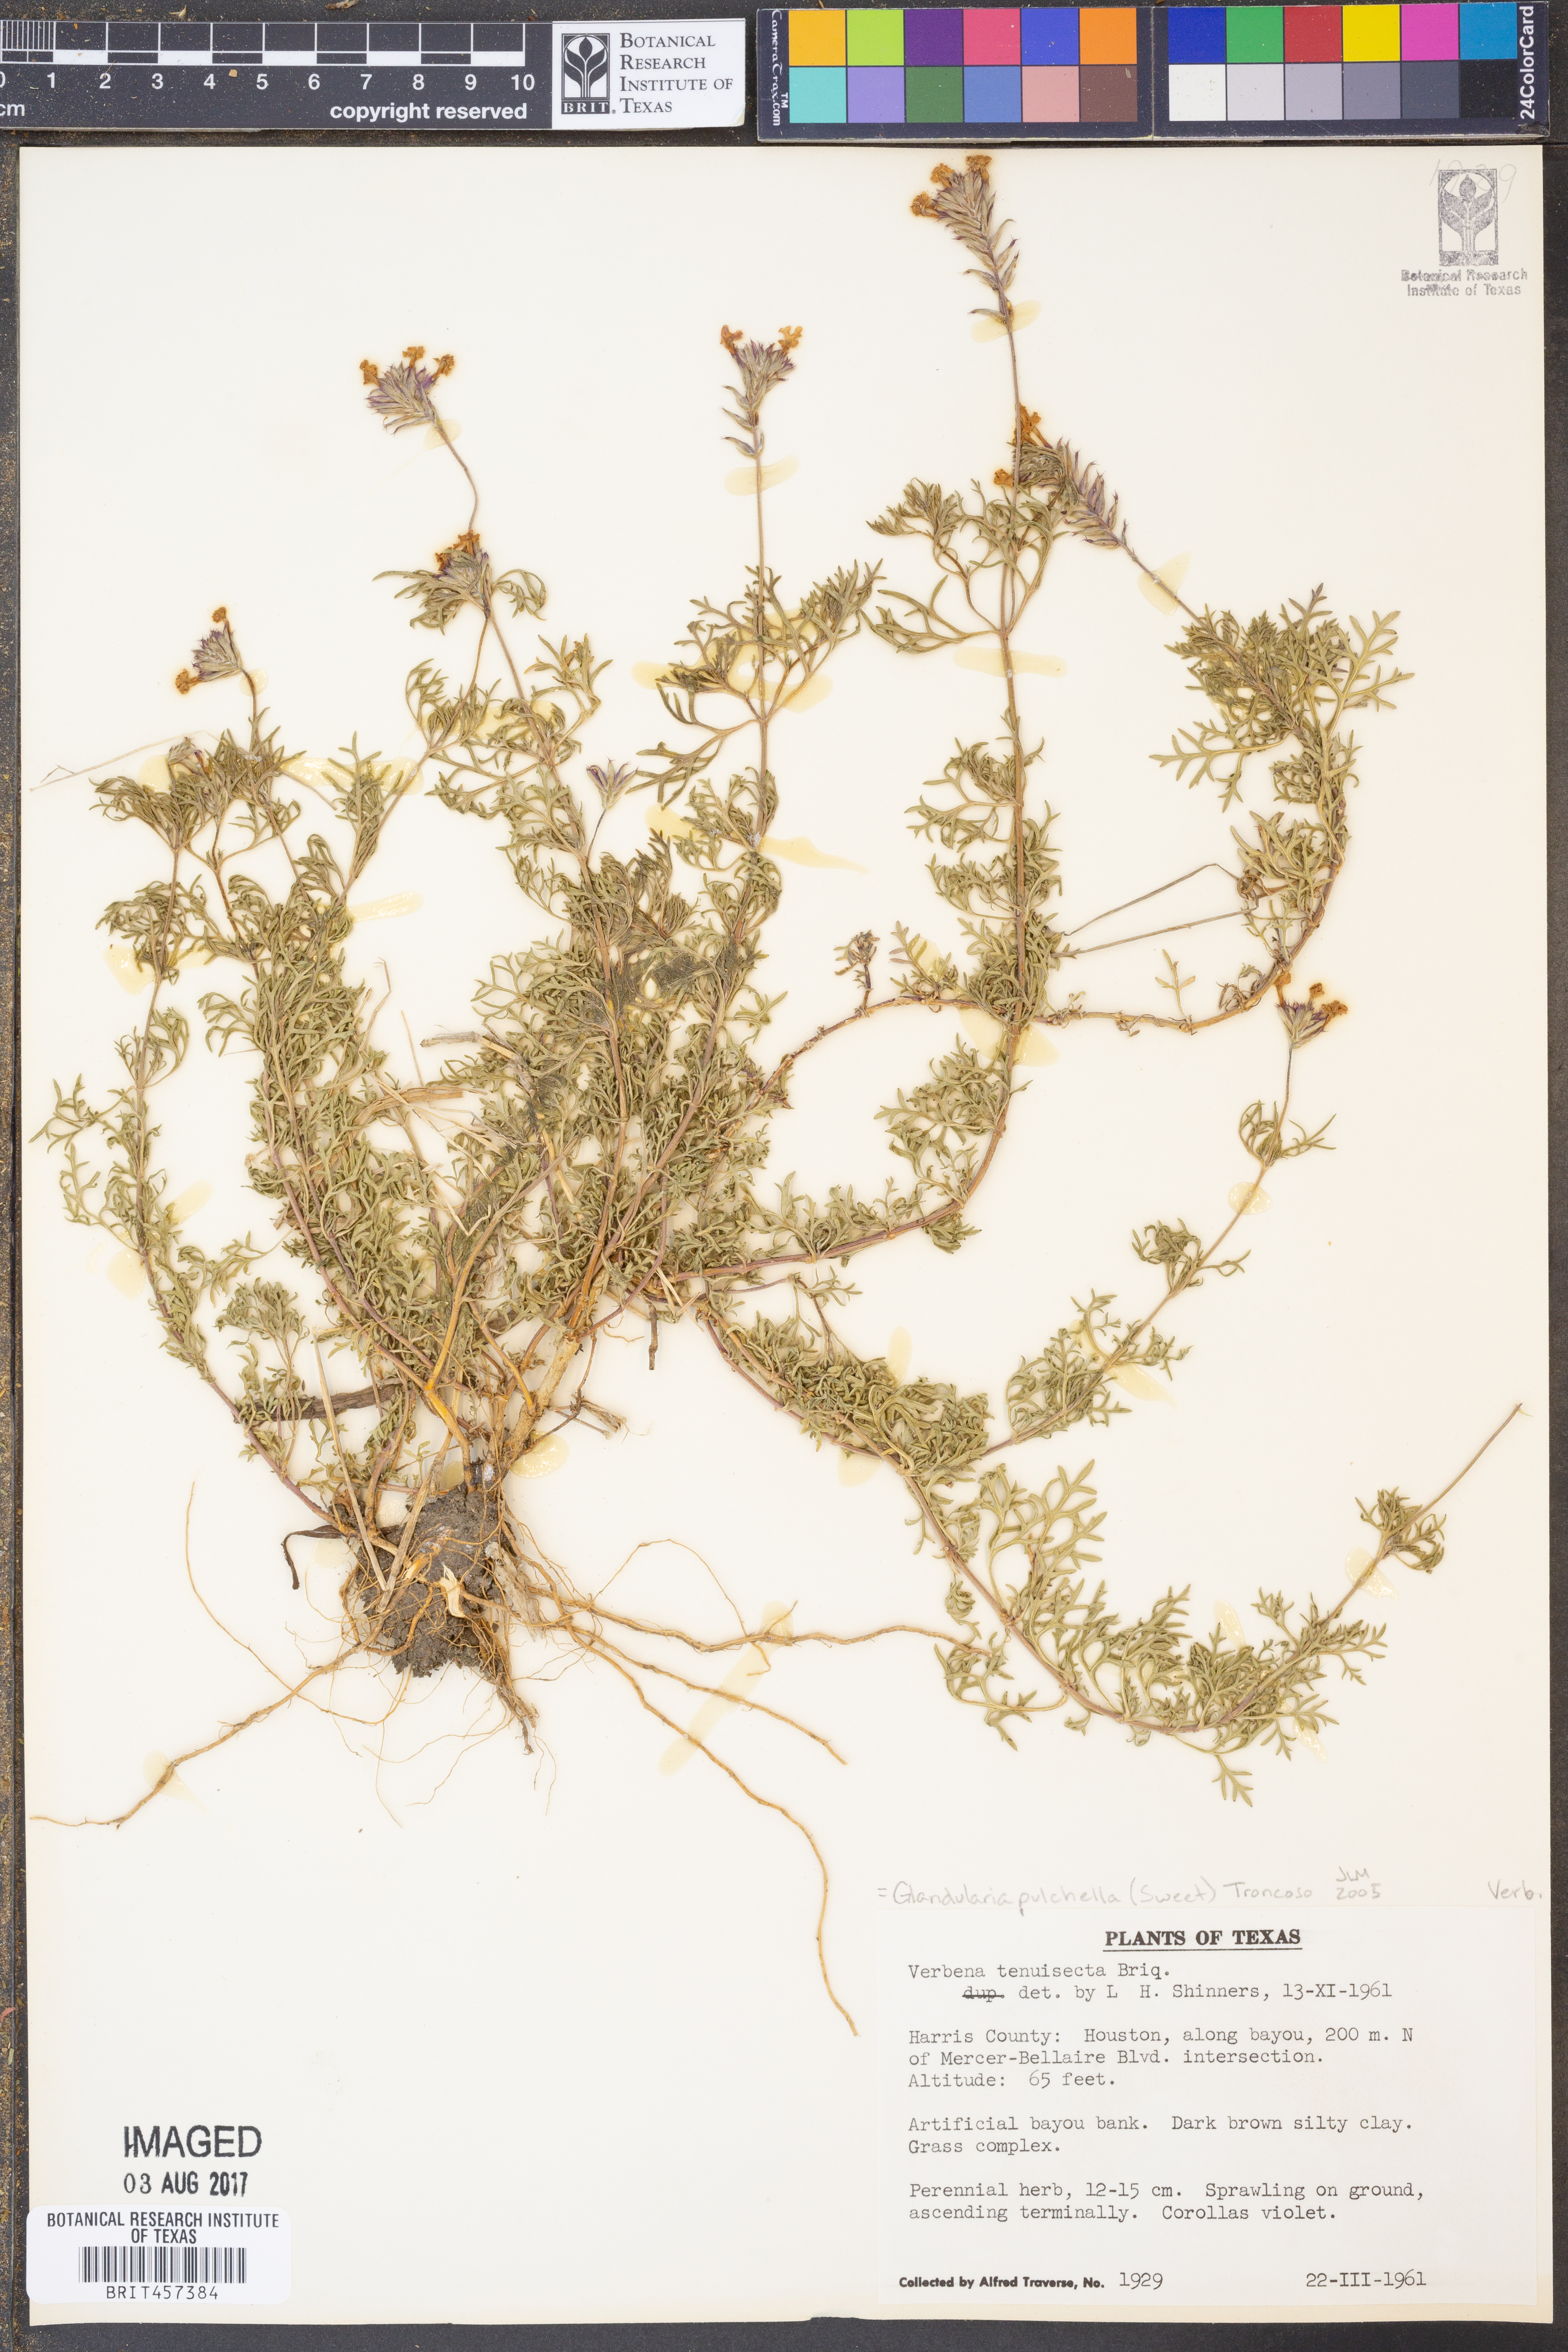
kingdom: Plantae
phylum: Tracheophyta
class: Magnoliopsida
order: Lamiales
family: Verbenaceae
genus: Verbena
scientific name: Verbena tenera
